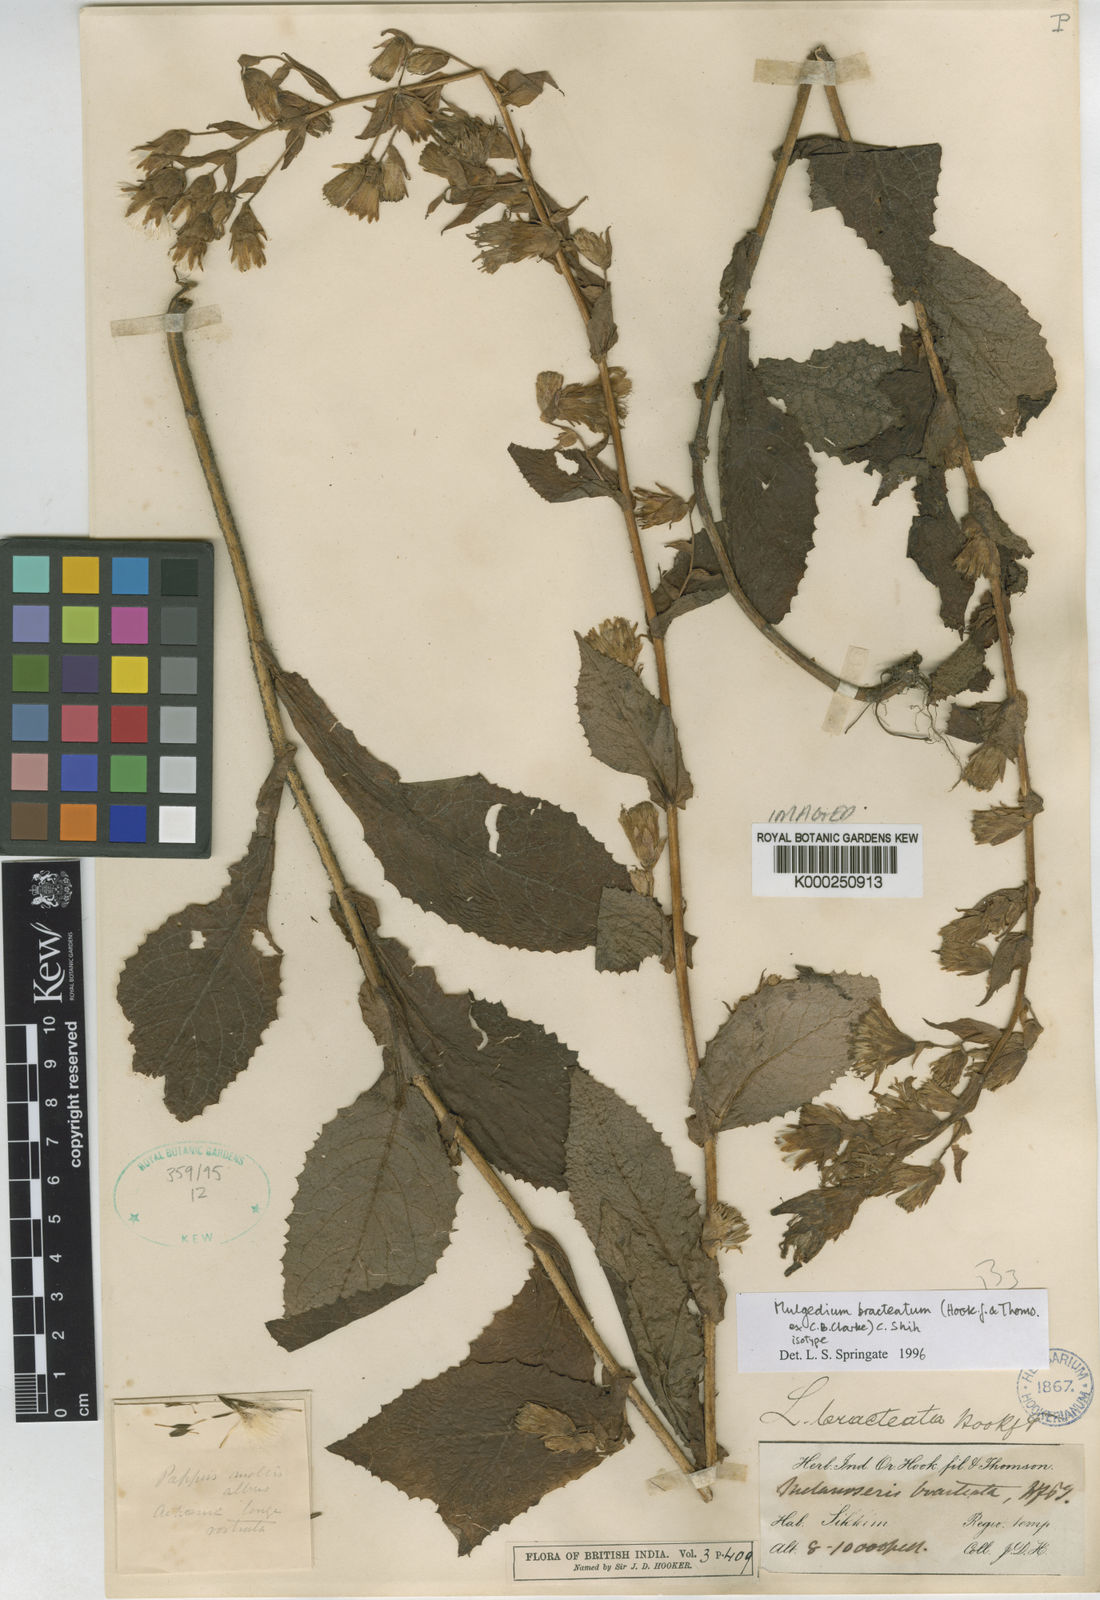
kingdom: Plantae
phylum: Tracheophyta
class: Magnoliopsida
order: Asterales
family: Asteraceae
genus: Lactuca
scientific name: Lactuca bracteata
